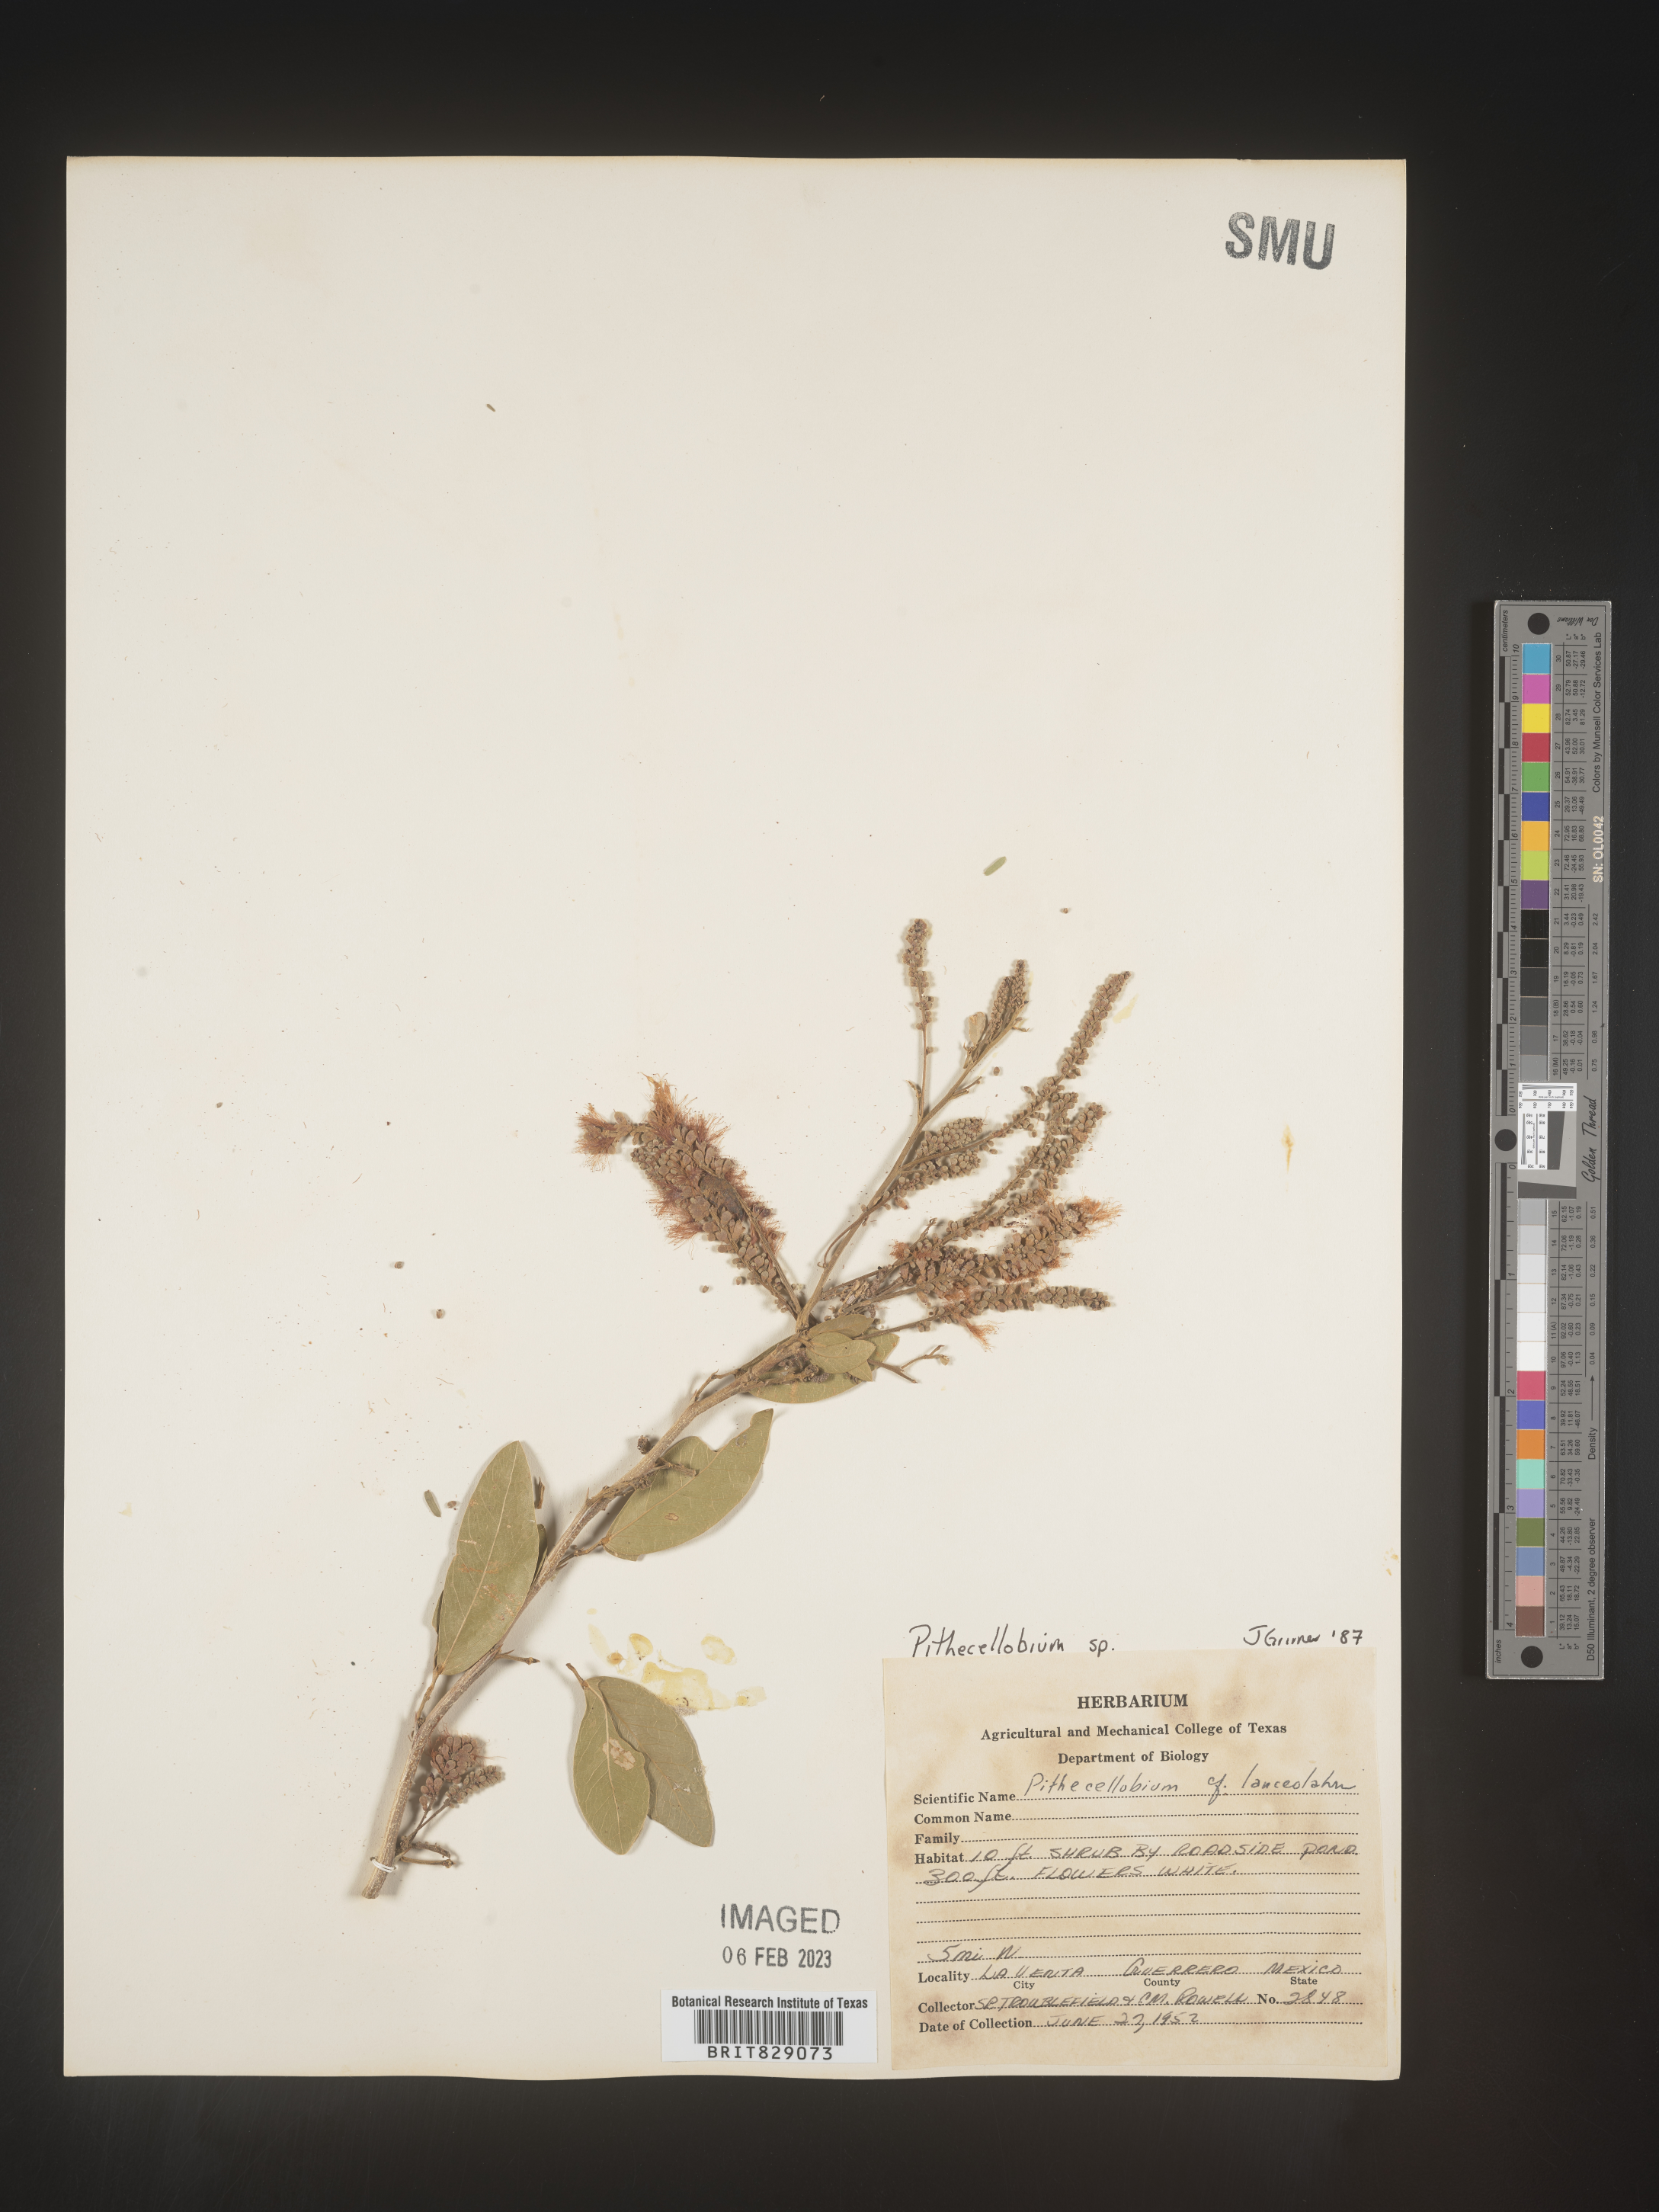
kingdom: Plantae
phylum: Tracheophyta
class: Magnoliopsida
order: Fabales
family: Fabaceae
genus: Pithecellobium
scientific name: Pithecellobium
